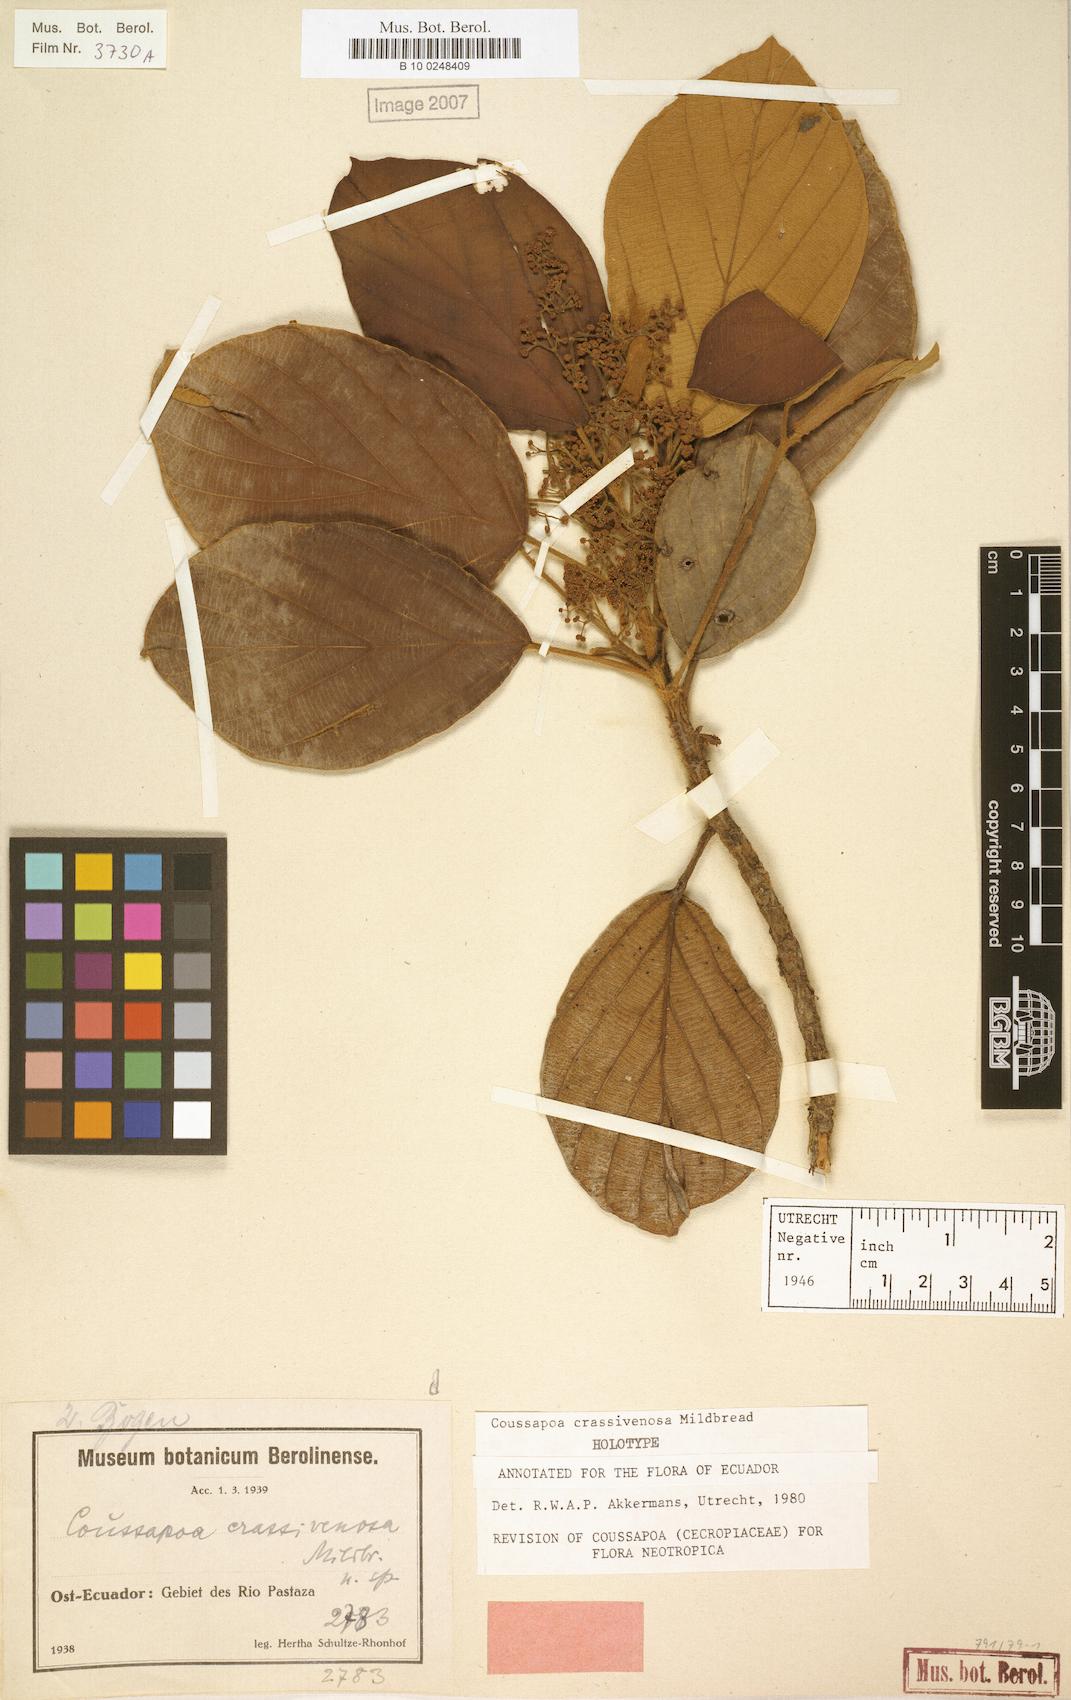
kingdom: Plantae
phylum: Tracheophyta
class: Magnoliopsida
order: Rosales
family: Urticaceae
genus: Coussapoa
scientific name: Coussapoa crassivenosa
